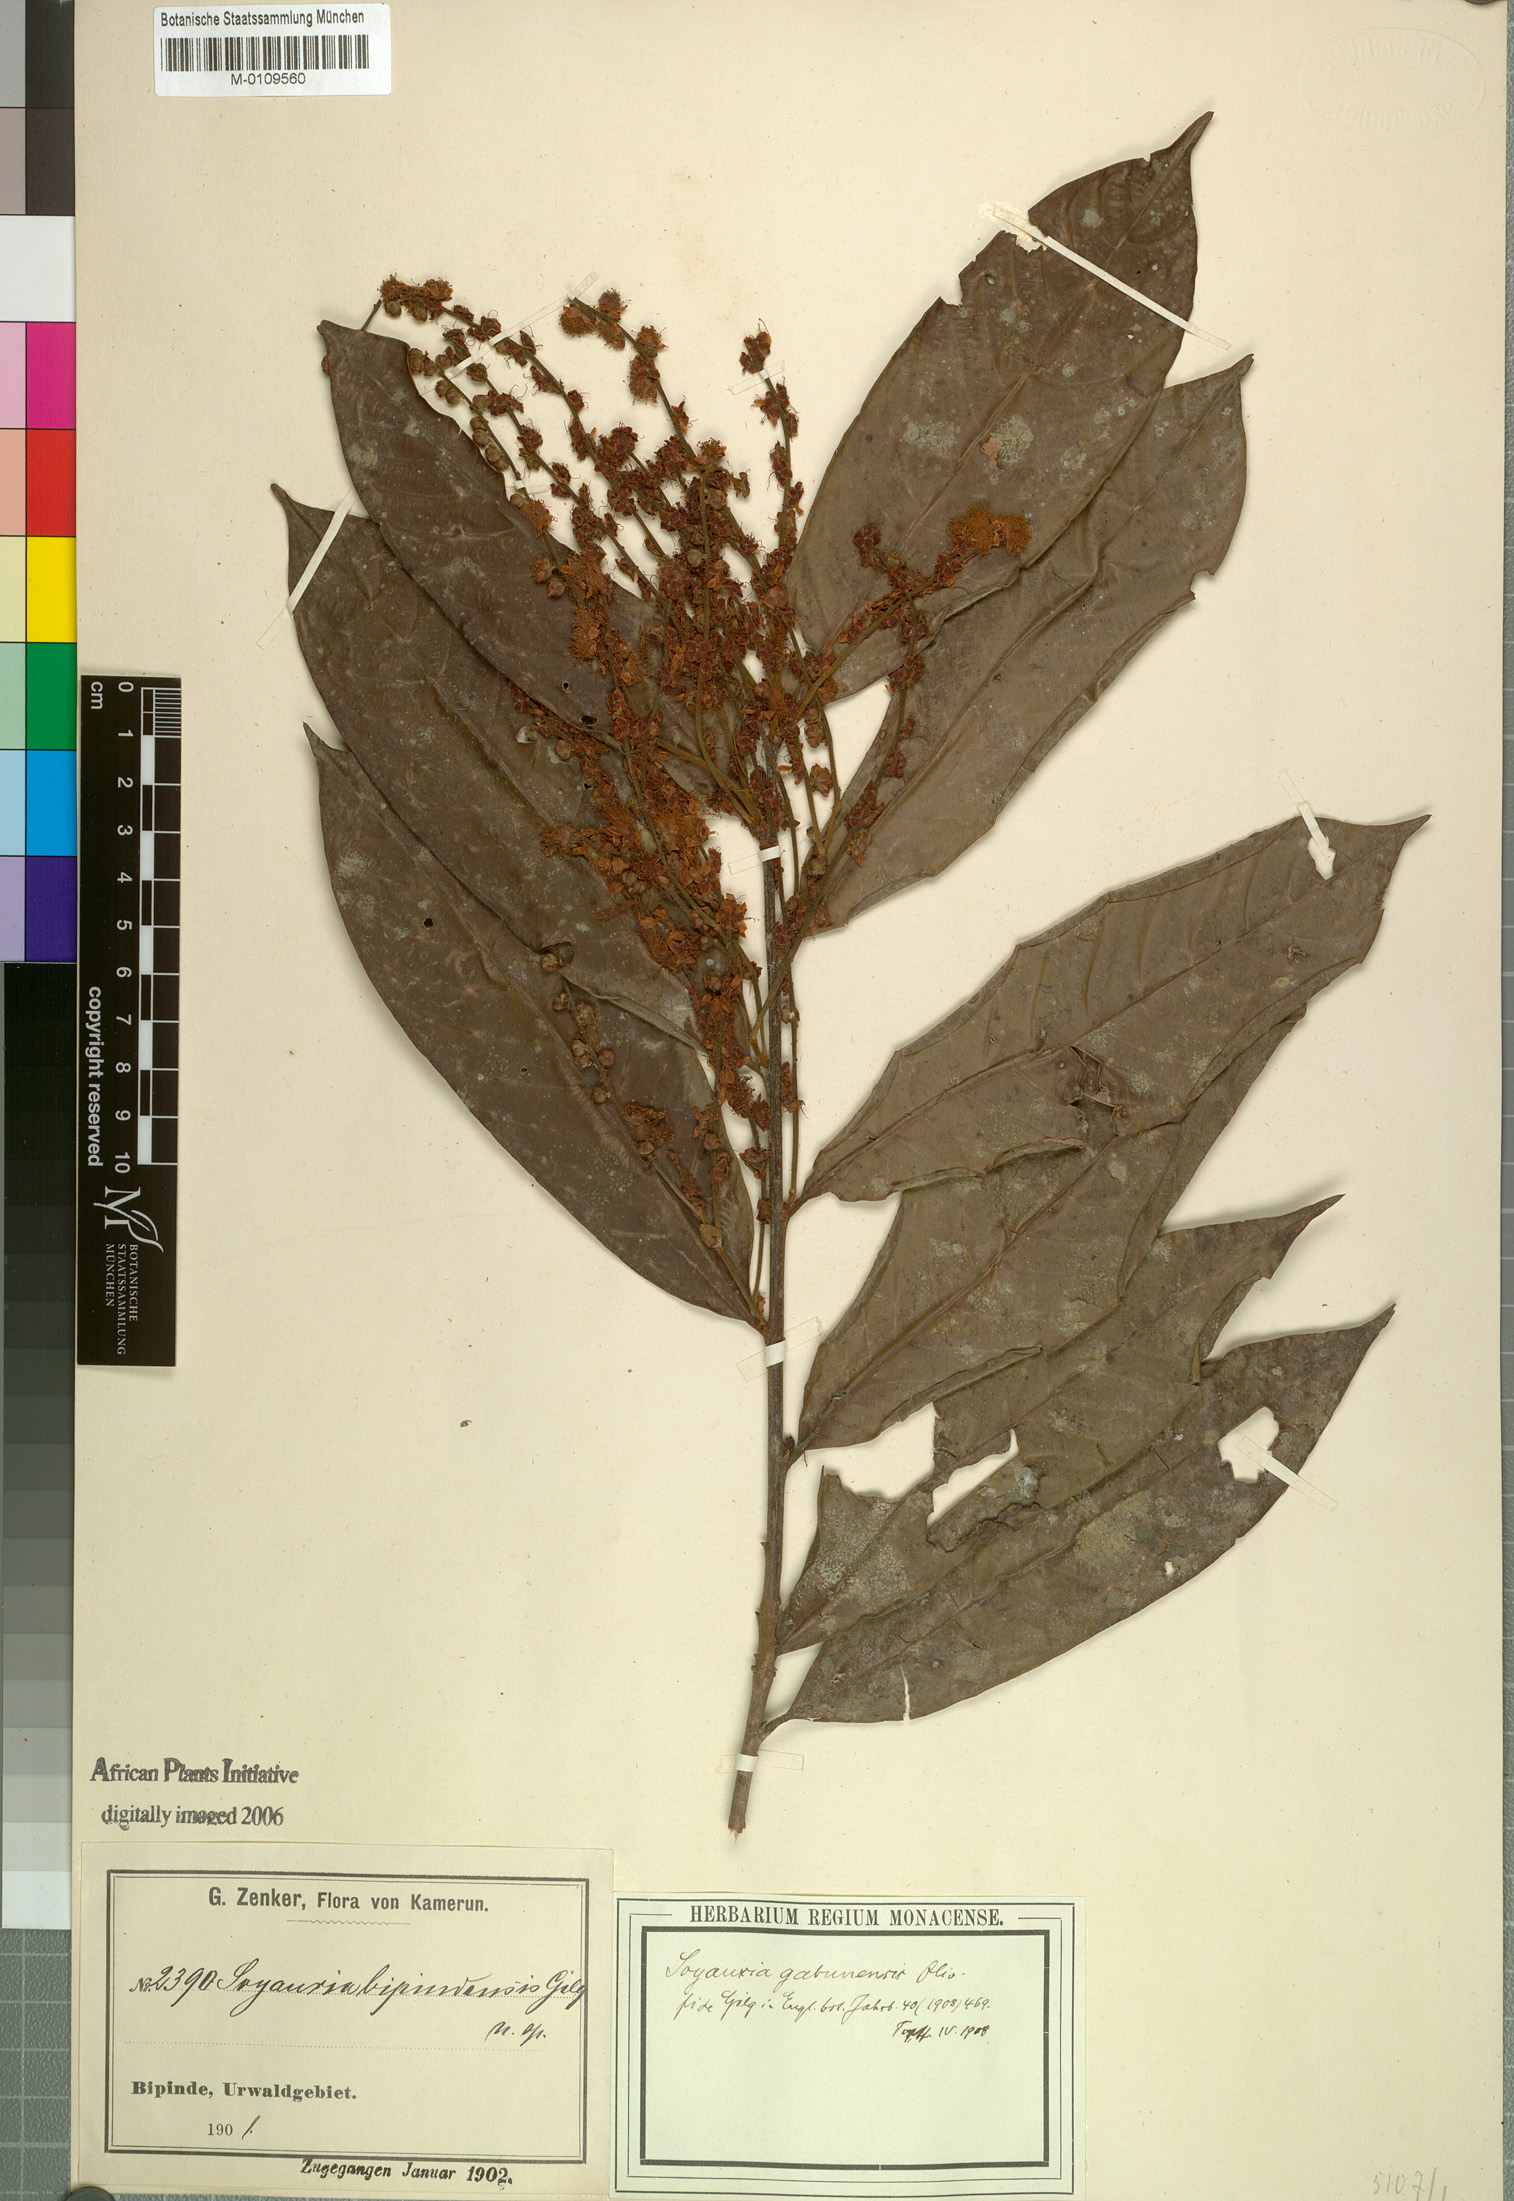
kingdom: Plantae
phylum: Tracheophyta
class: Magnoliopsida
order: Saxifragales
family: Peridiscaceae
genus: Soyauxia
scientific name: Soyauxia gabonensis
